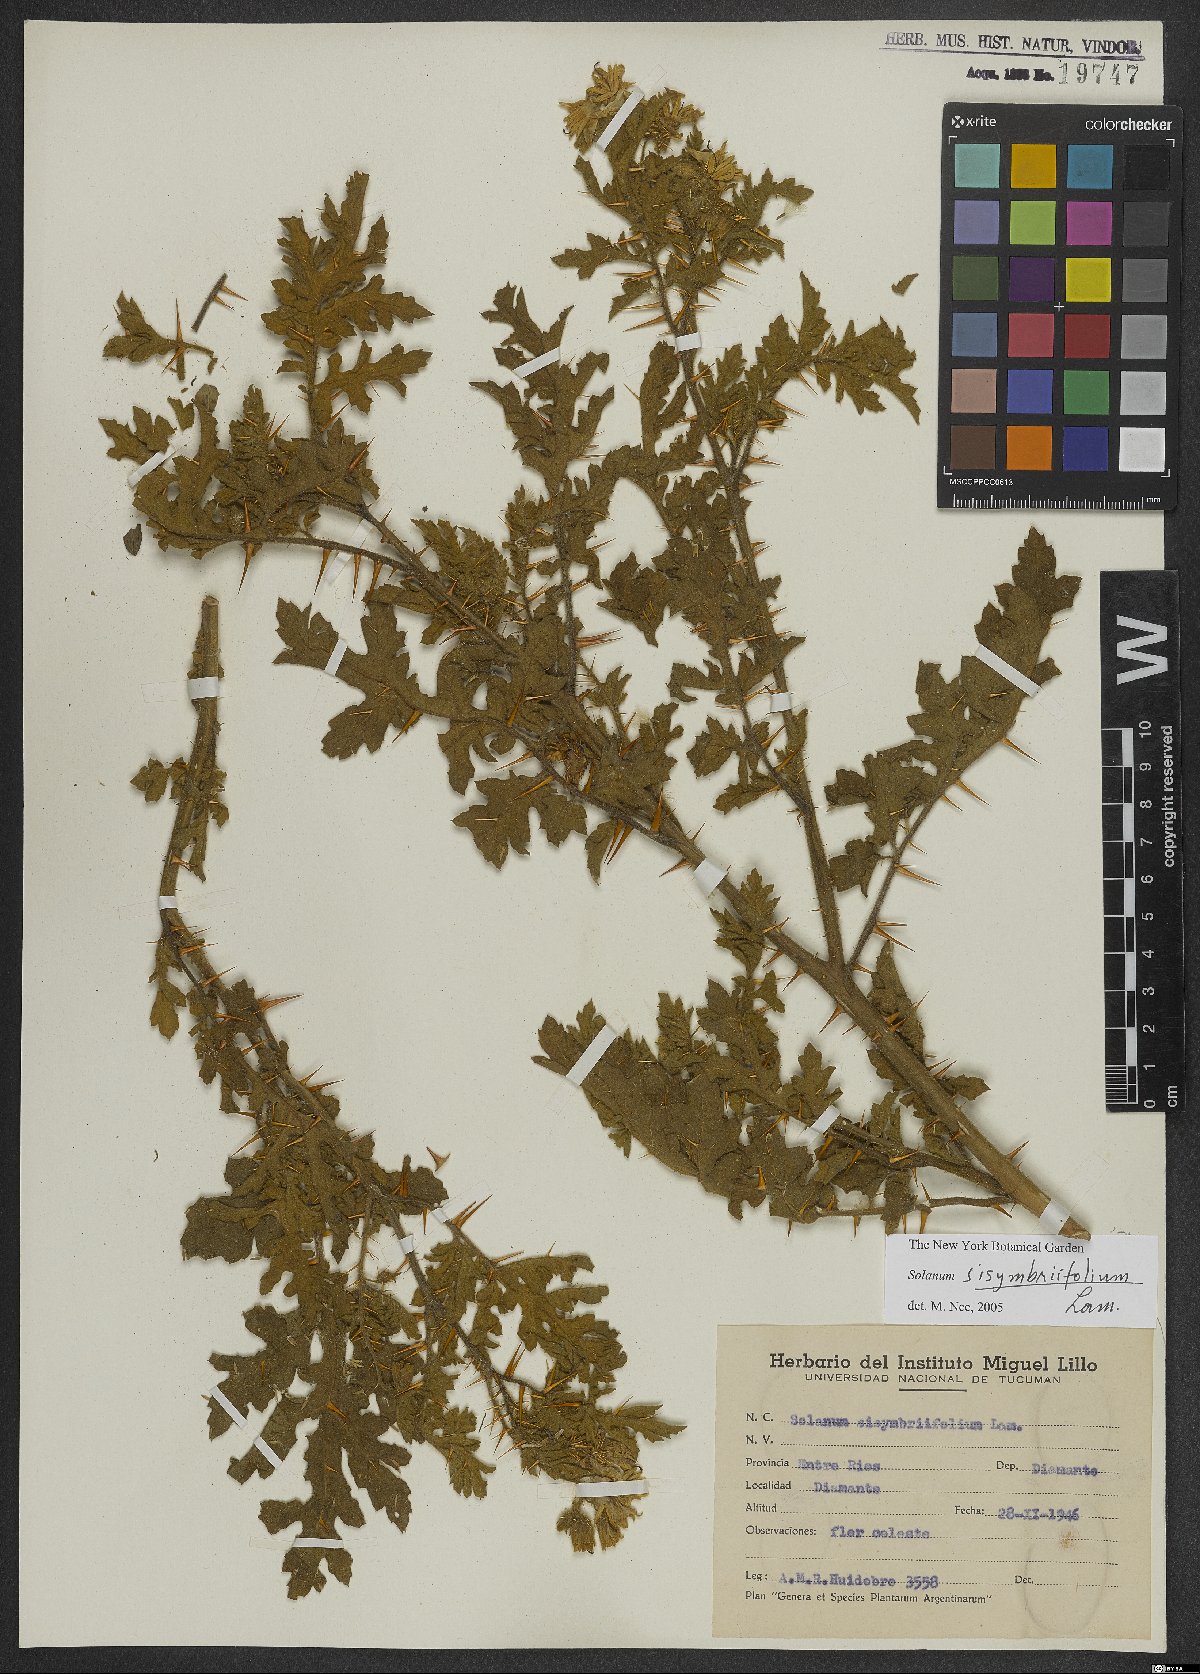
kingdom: Plantae
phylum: Tracheophyta
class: Magnoliopsida
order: Solanales
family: Solanaceae
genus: Solanum
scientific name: Solanum sisymbriifolium
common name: Red buffalo-bur
